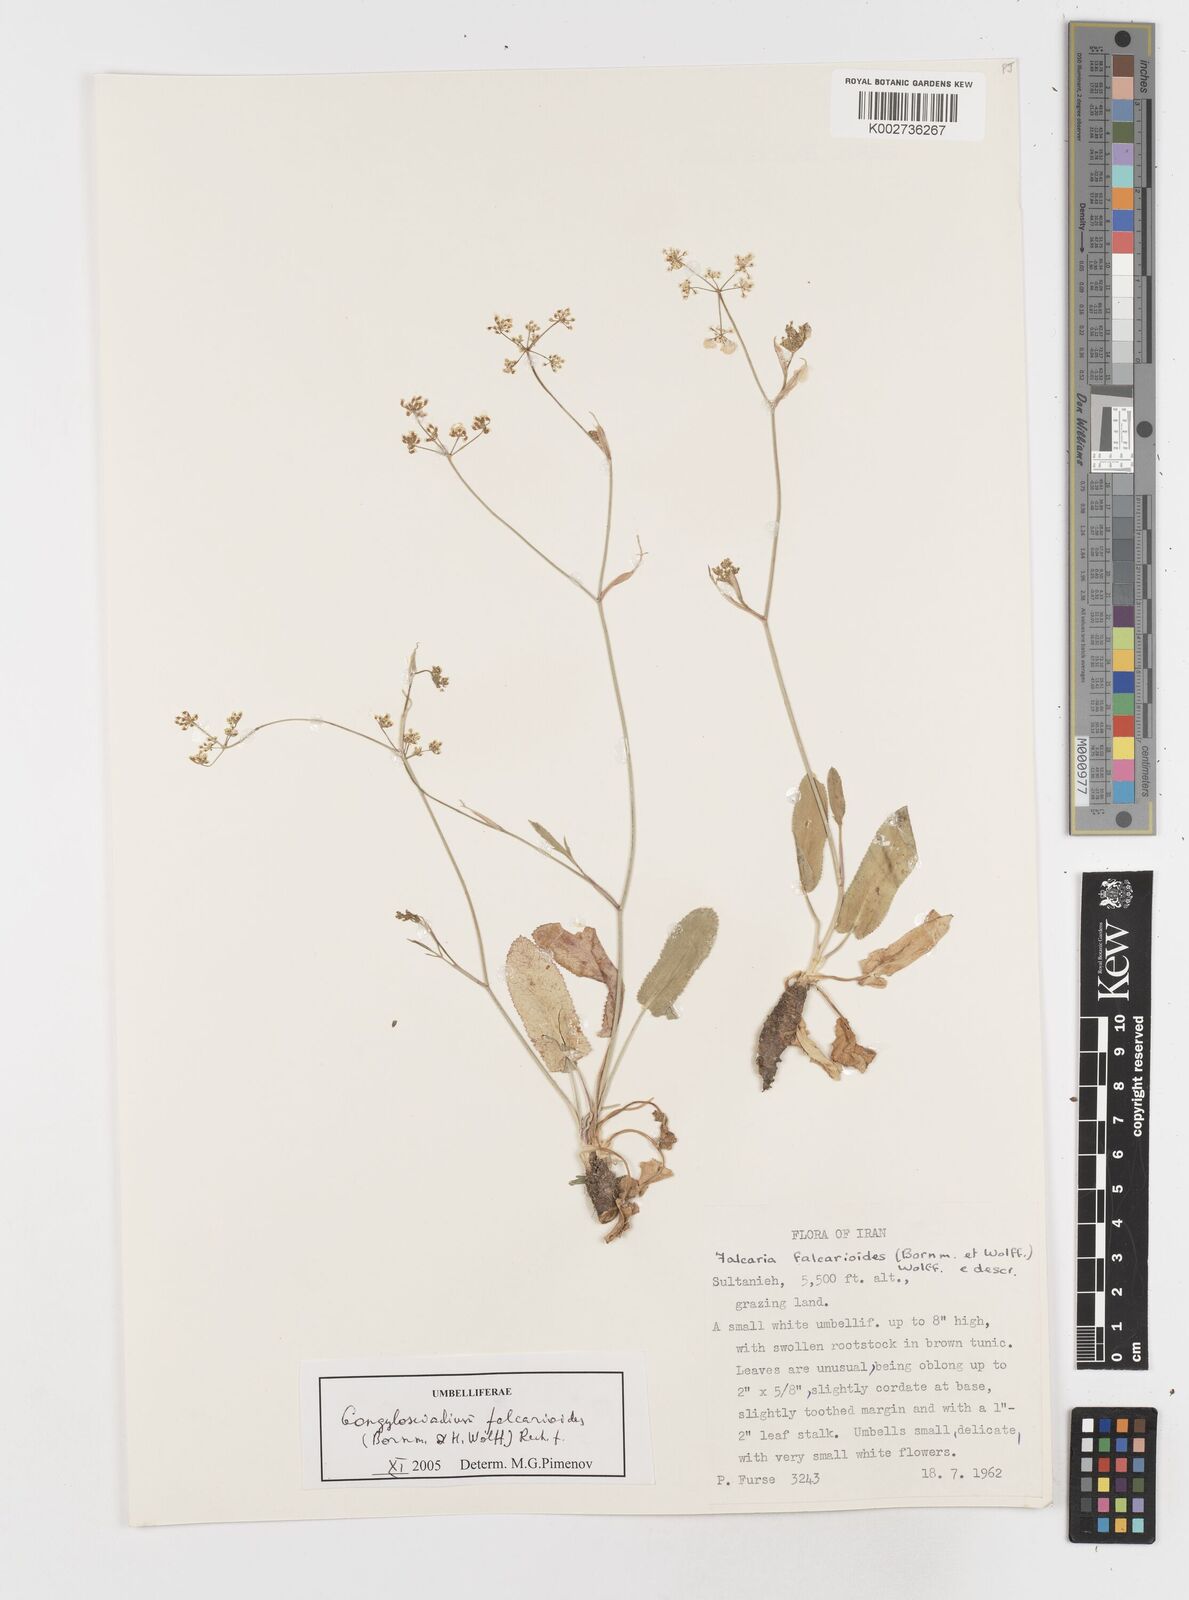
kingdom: Plantae
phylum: Tracheophyta
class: Magnoliopsida
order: Apiales
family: Apiaceae
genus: Gongylosciadium
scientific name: Gongylosciadium falcarioides
